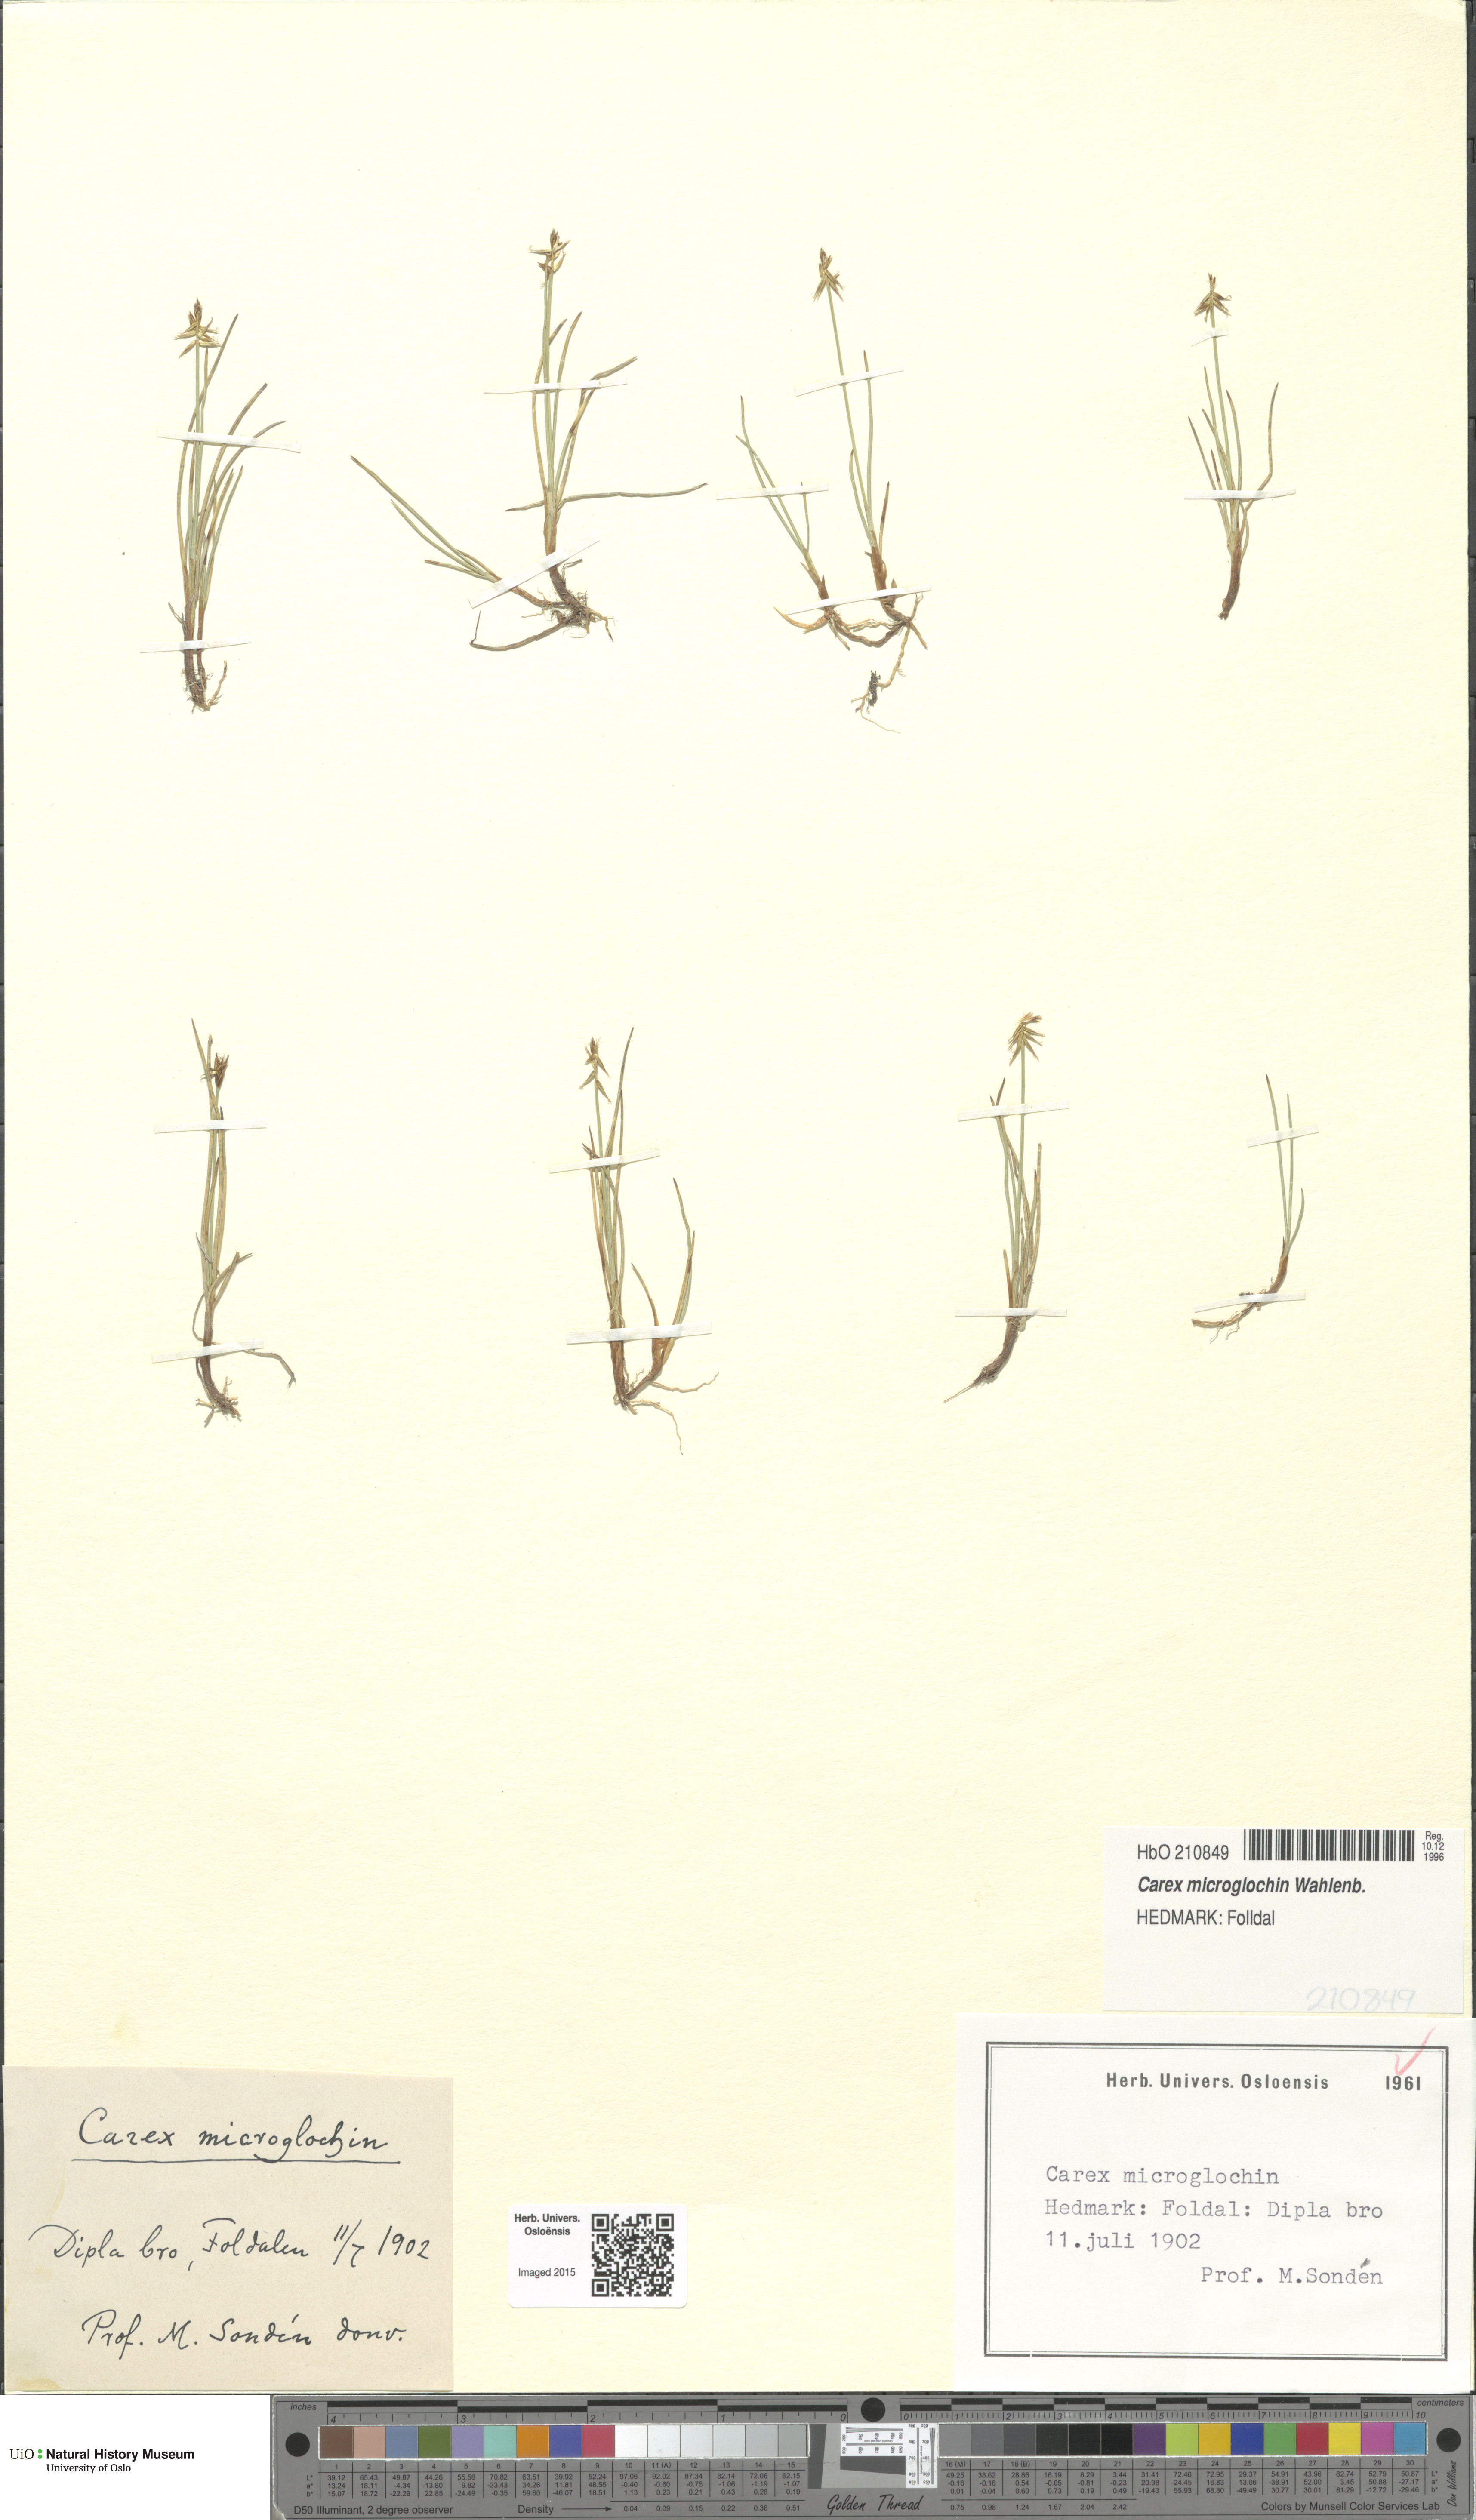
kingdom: Plantae
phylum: Tracheophyta
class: Liliopsida
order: Poales
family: Cyperaceae
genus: Carex
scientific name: Carex microglochin
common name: Bristle sedge
